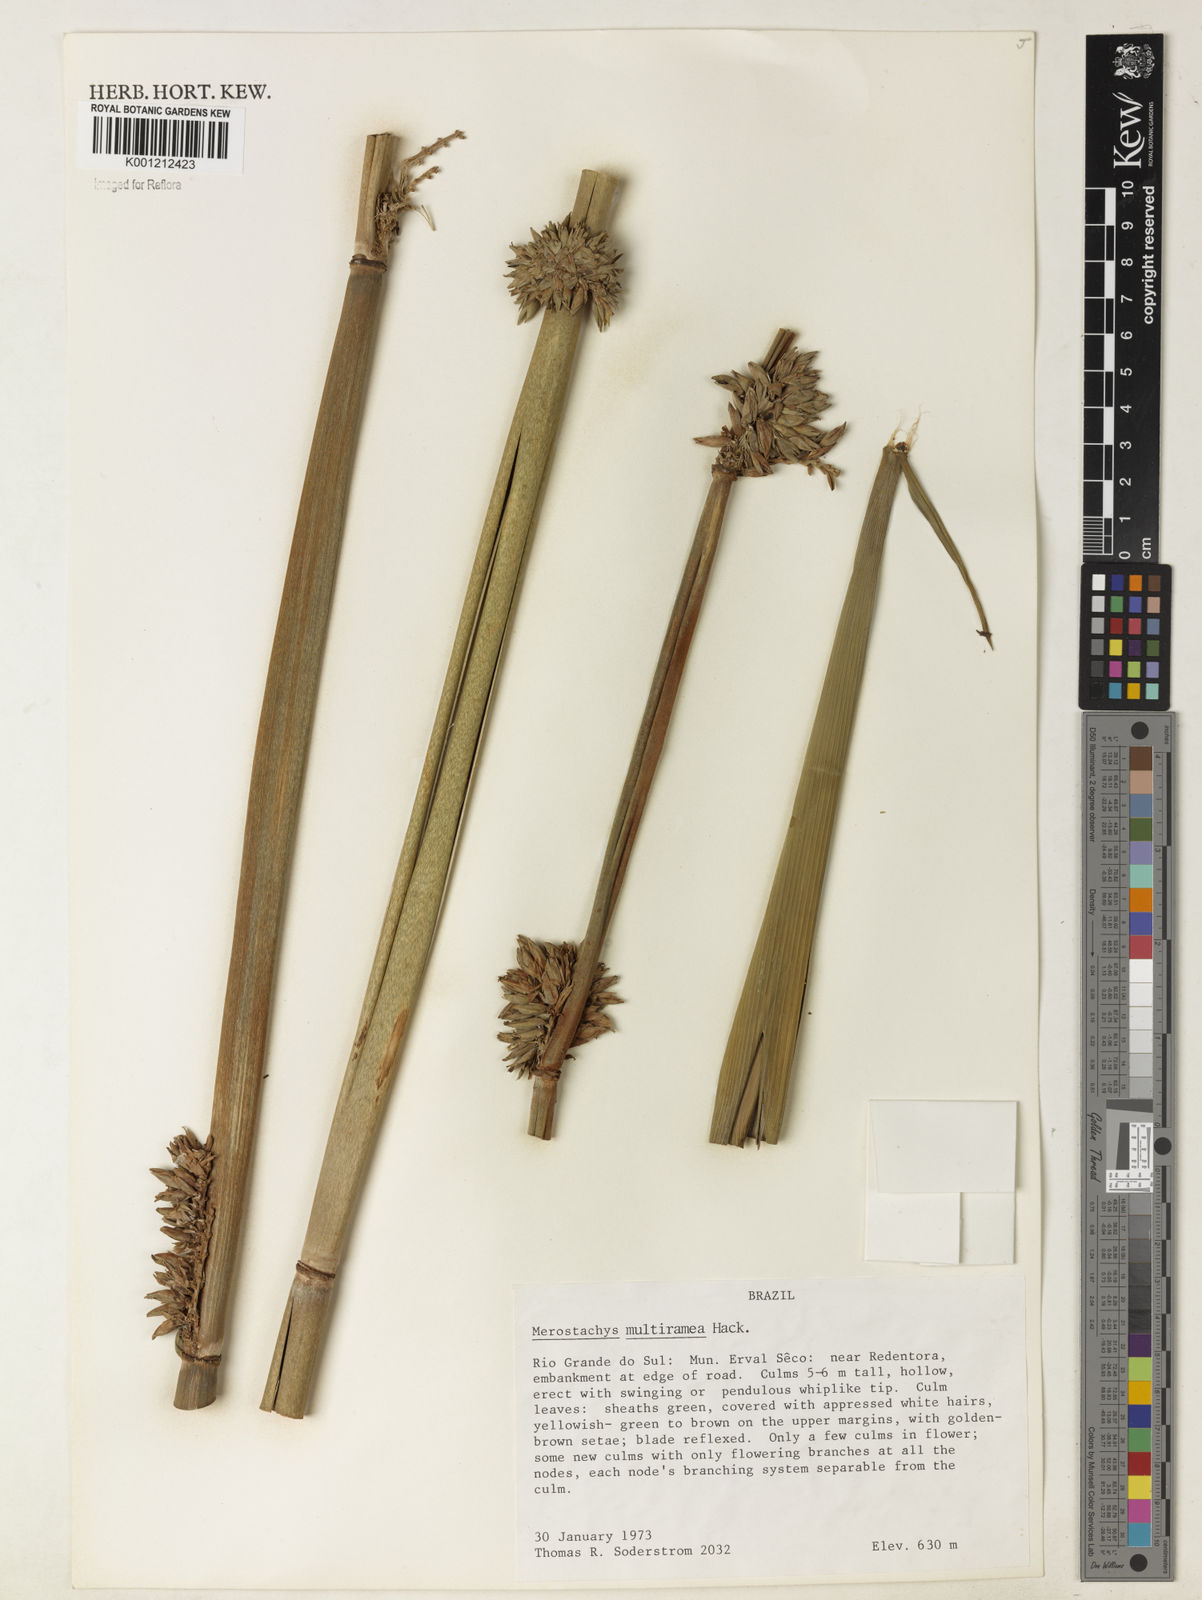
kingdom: Plantae
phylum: Tracheophyta
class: Liliopsida
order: Poales
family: Poaceae
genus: Merostachys
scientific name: Merostachys multiramea
